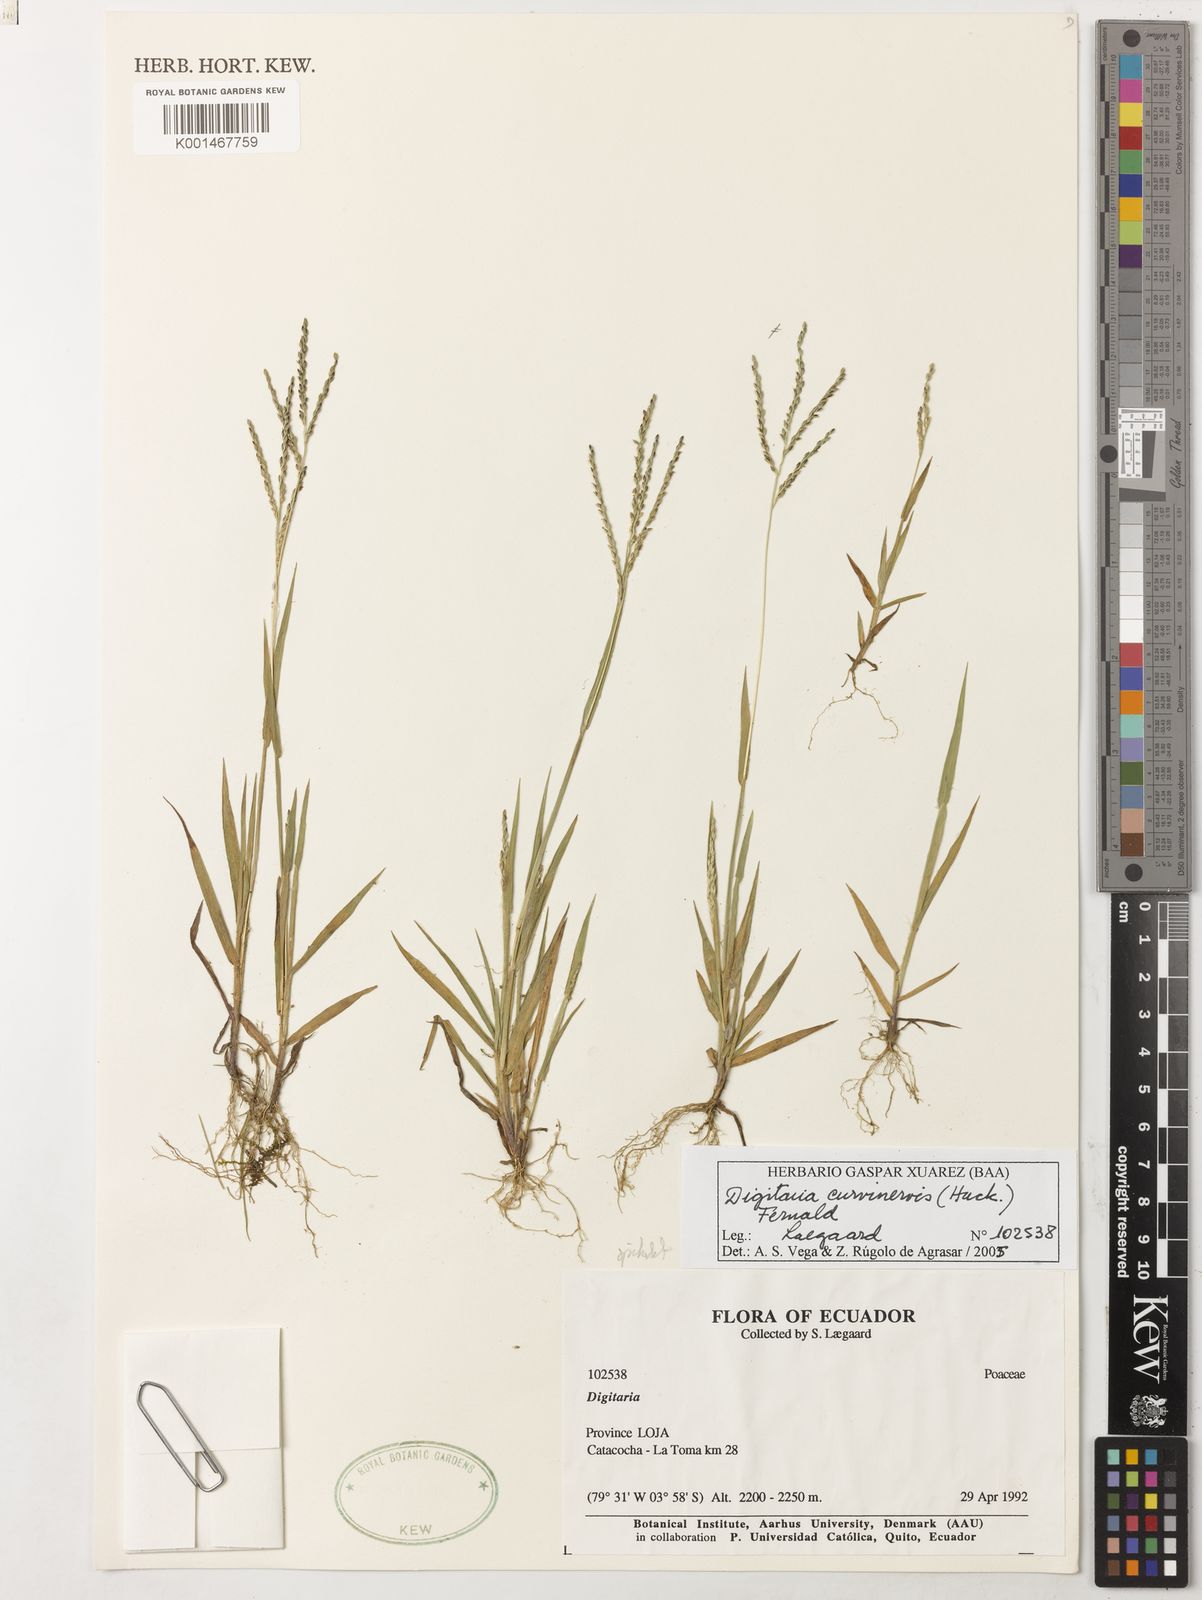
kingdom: Plantae
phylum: Tracheophyta
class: Liliopsida
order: Poales
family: Poaceae
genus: Digitaria
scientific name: Digitaria curvinervis
